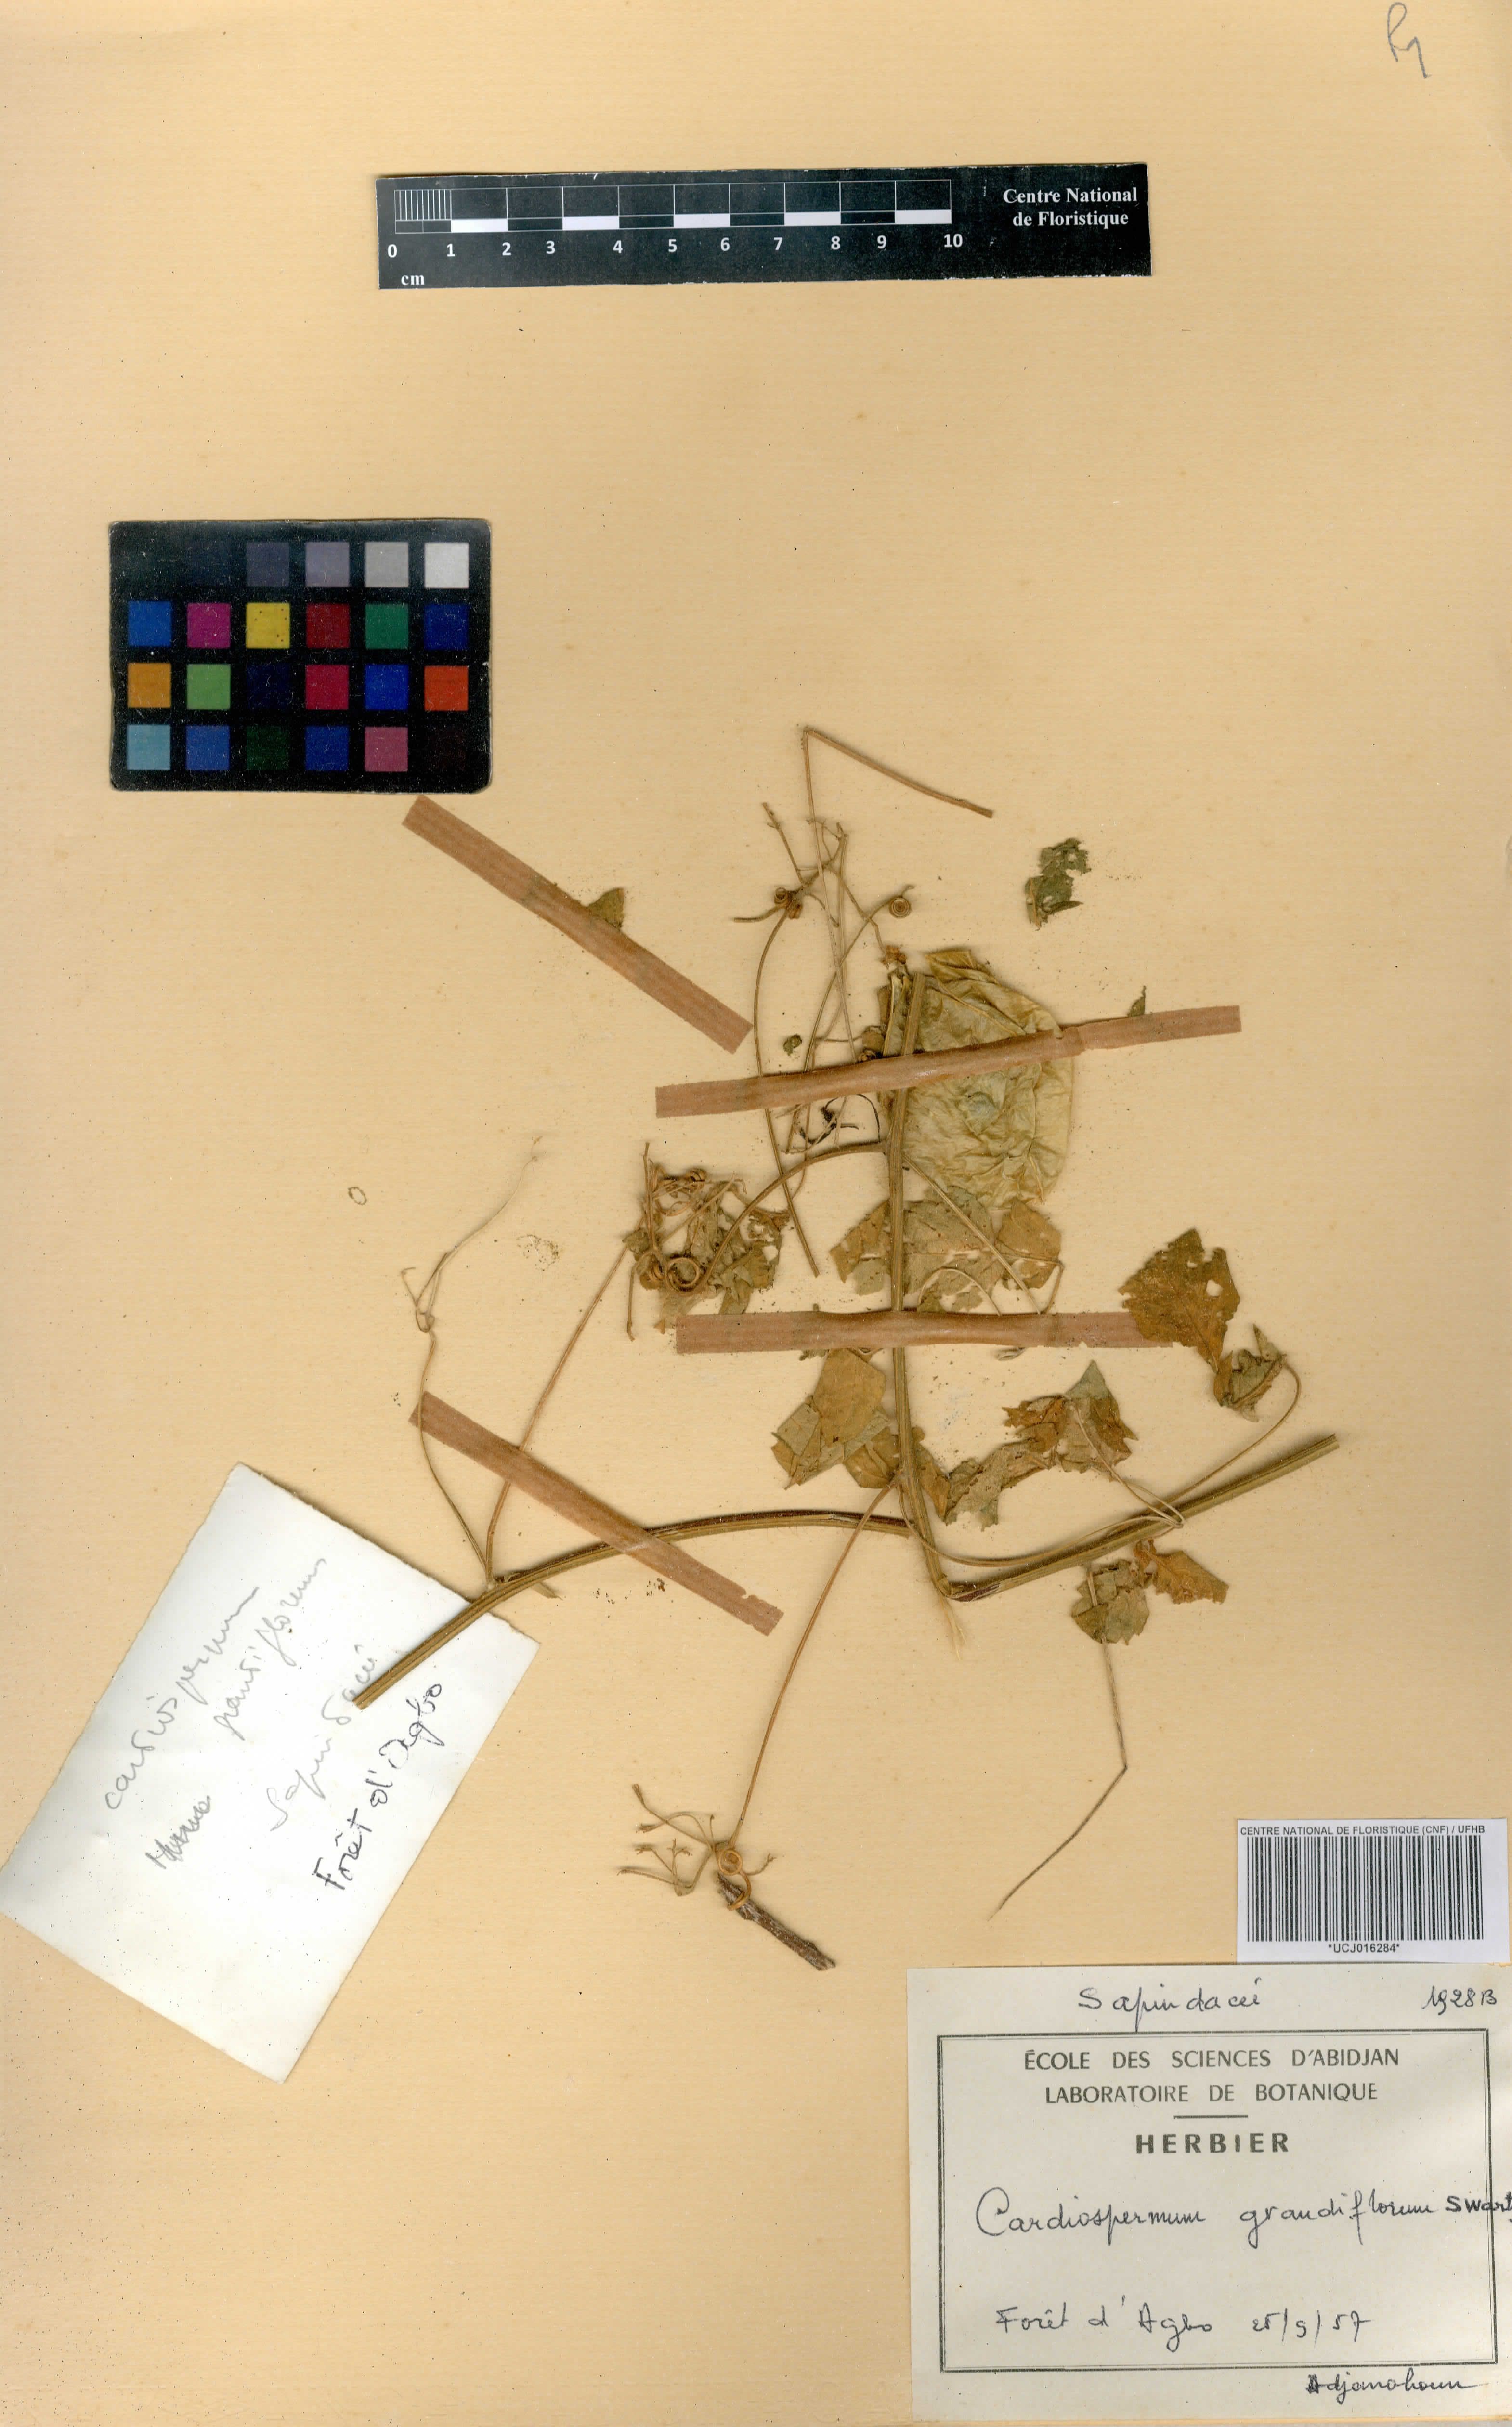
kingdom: Plantae
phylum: Tracheophyta
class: Magnoliopsida
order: Sapindales
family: Sapindaceae
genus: Cardiospermum
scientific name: Cardiospermum grandiflorum
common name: Balloon vine
